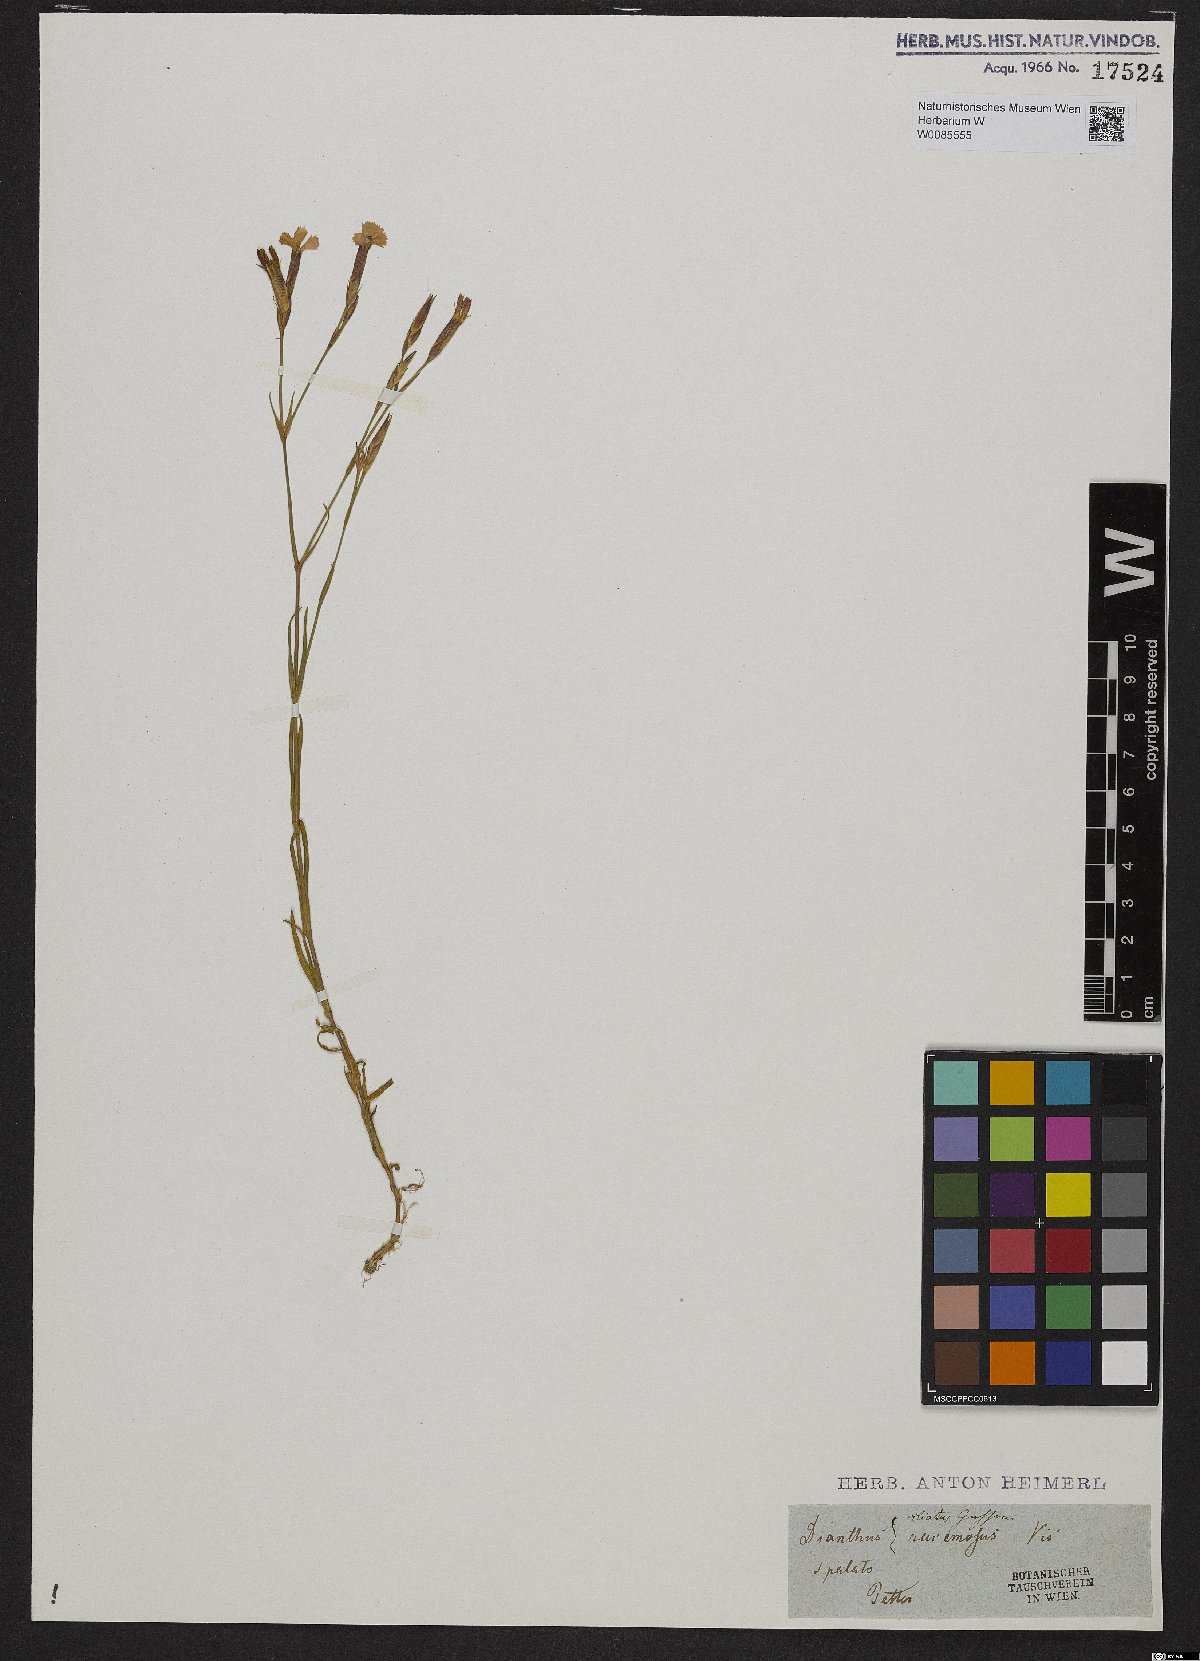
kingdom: Plantae
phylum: Tracheophyta
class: Magnoliopsida
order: Caryophyllales
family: Caryophyllaceae
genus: Dianthus
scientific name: Dianthus ciliatus
